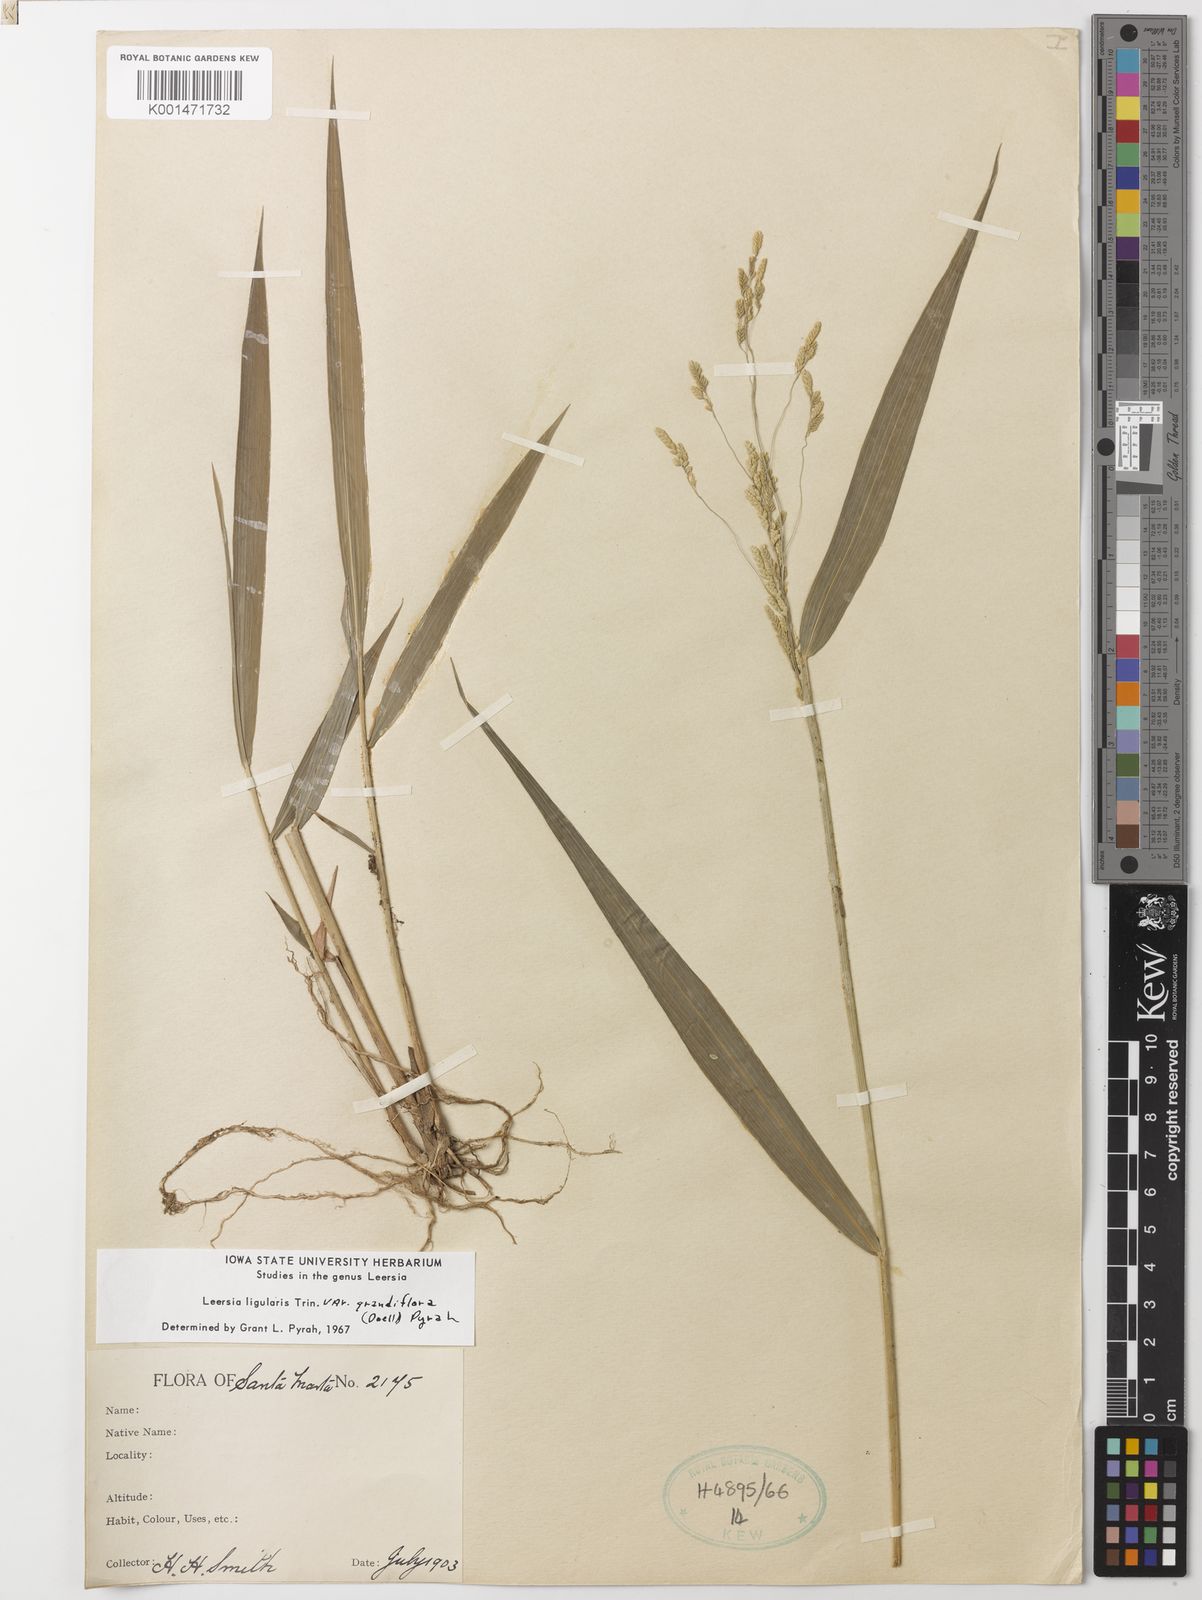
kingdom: Plantae
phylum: Tracheophyta
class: Liliopsida
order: Poales
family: Poaceae
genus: Leersia
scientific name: Leersia ligularis
